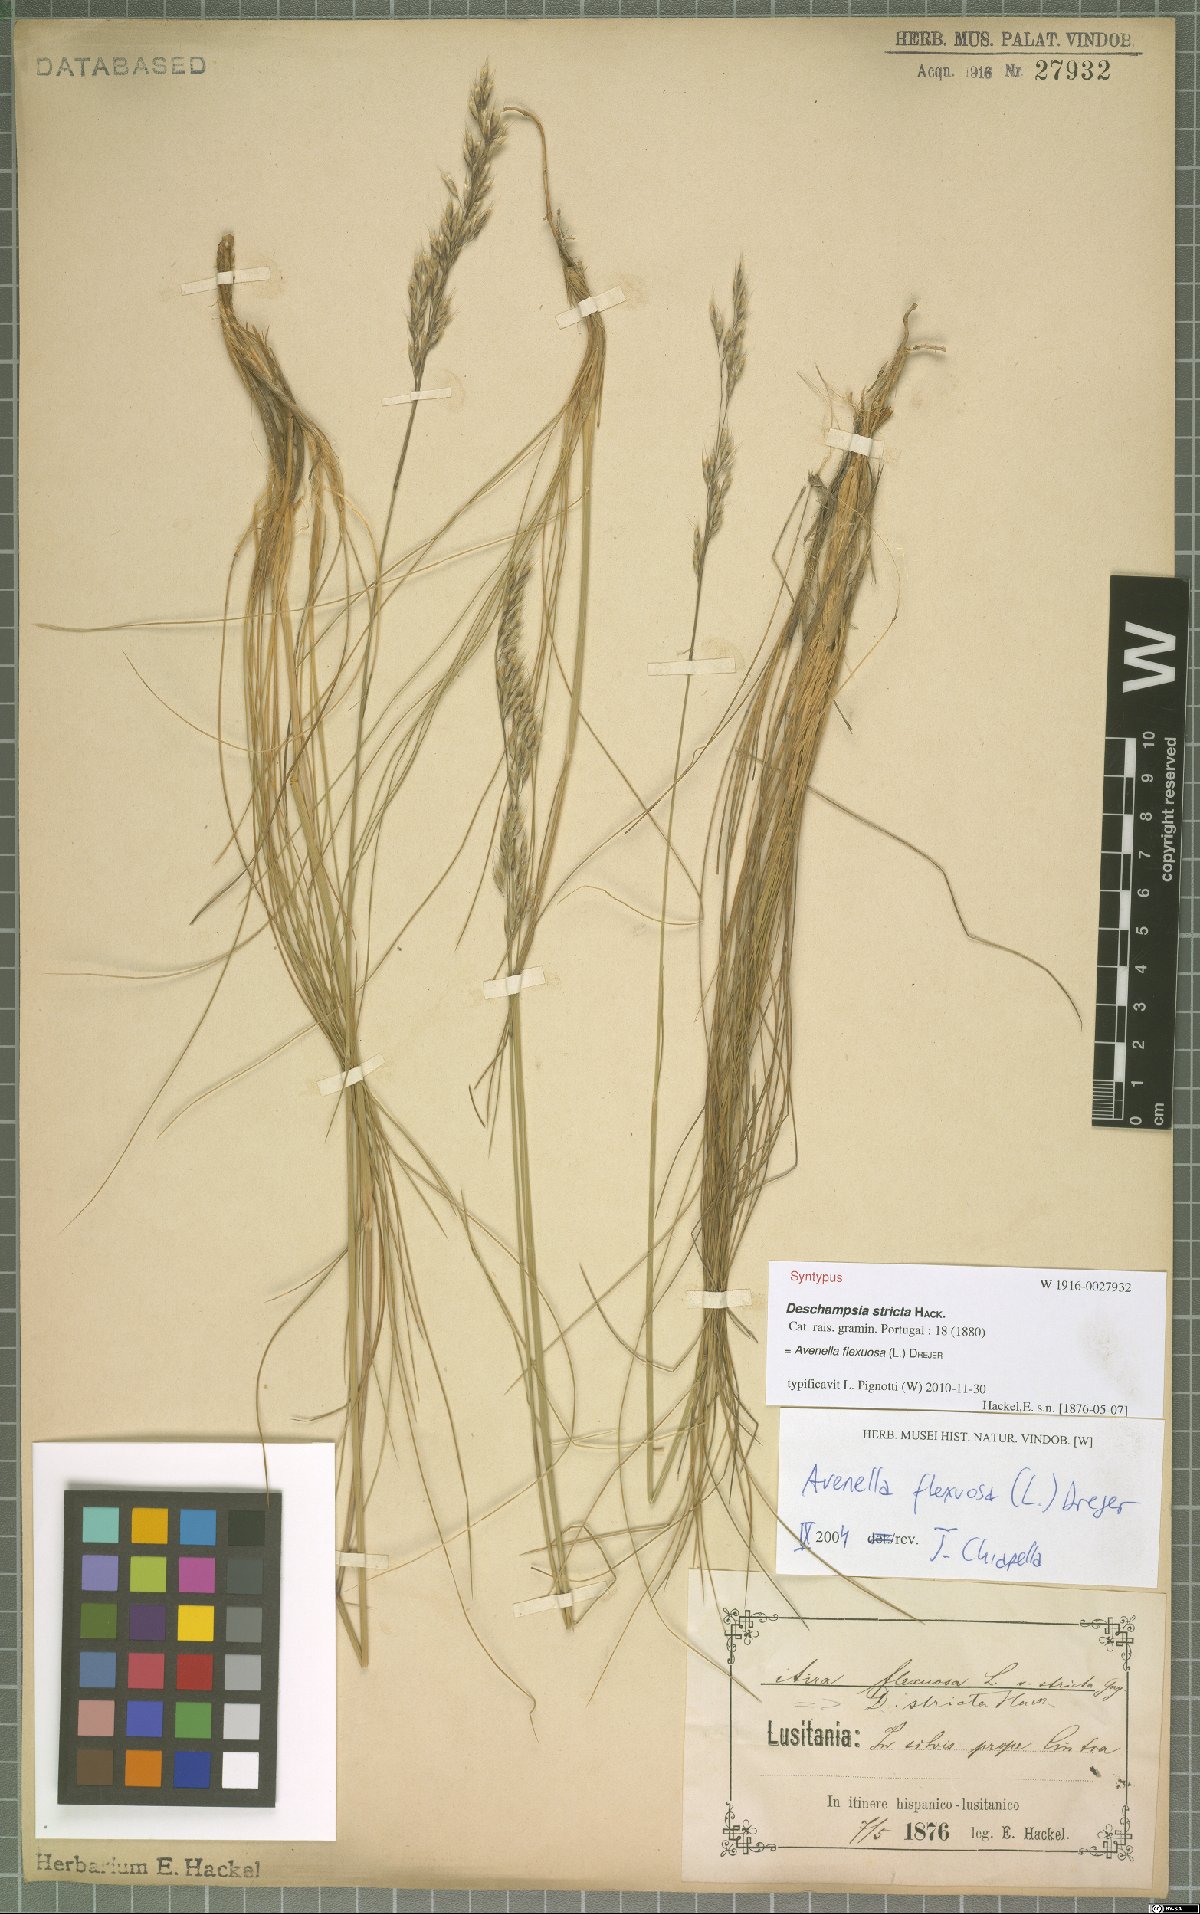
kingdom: Plantae
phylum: Tracheophyta
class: Liliopsida
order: Poales
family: Poaceae
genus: Avenella
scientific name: Avenella flexuosa
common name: Wavy hairgrass
